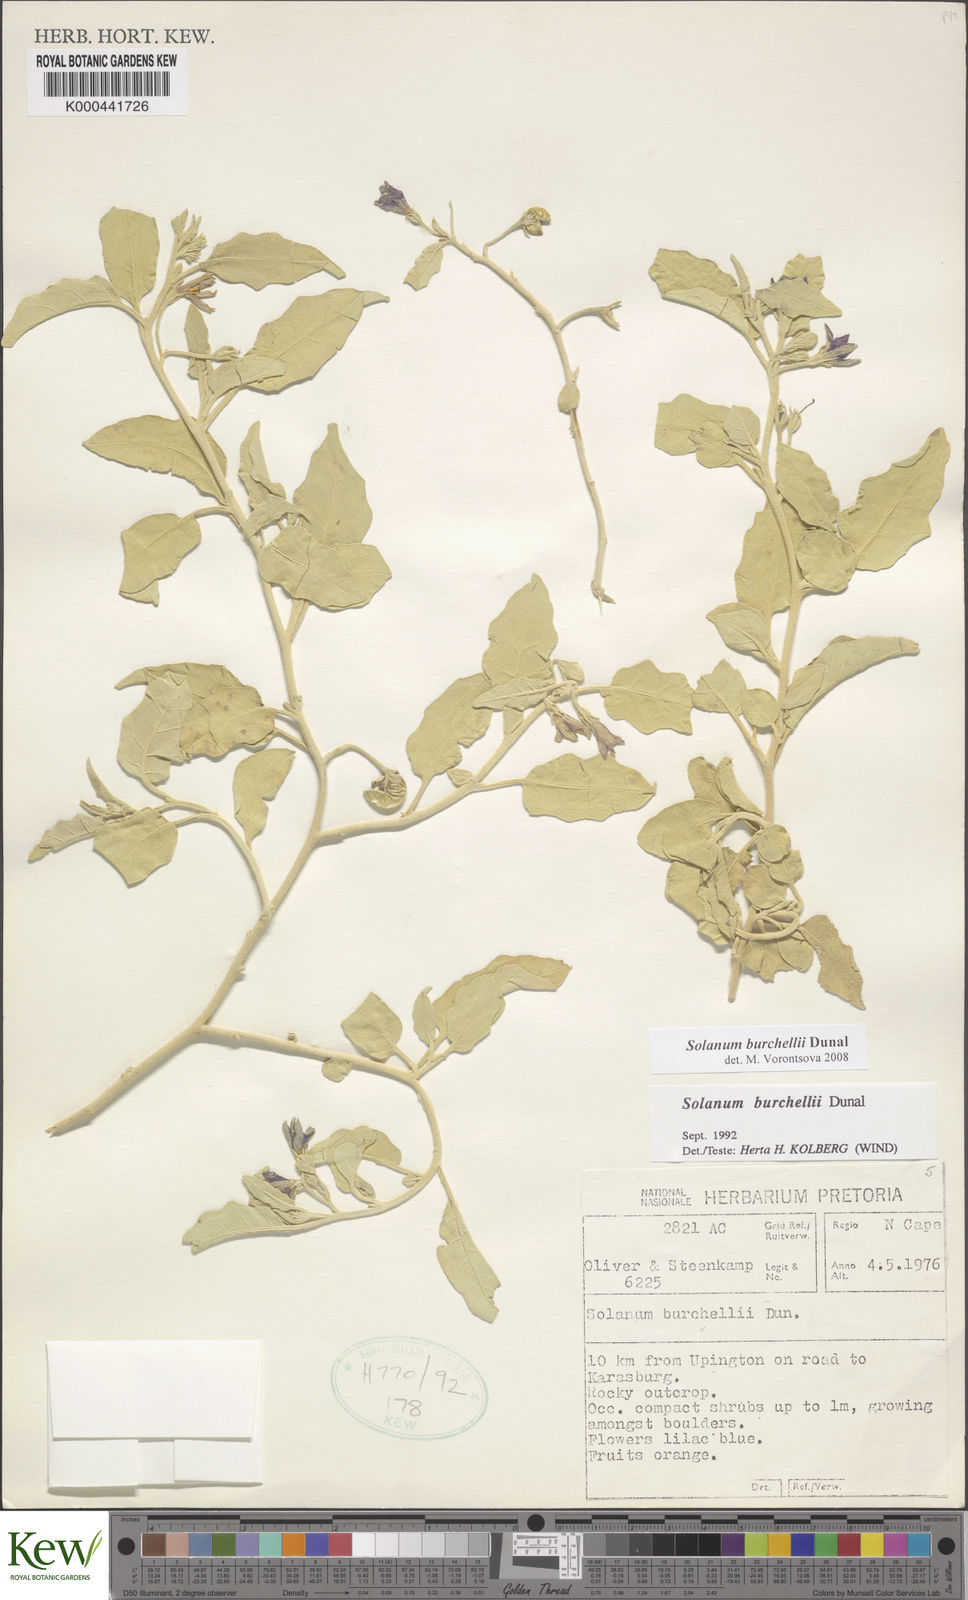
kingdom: Plantae
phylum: Tracheophyta
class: Magnoliopsida
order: Solanales
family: Solanaceae
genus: Solanum
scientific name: Solanum burchellii
